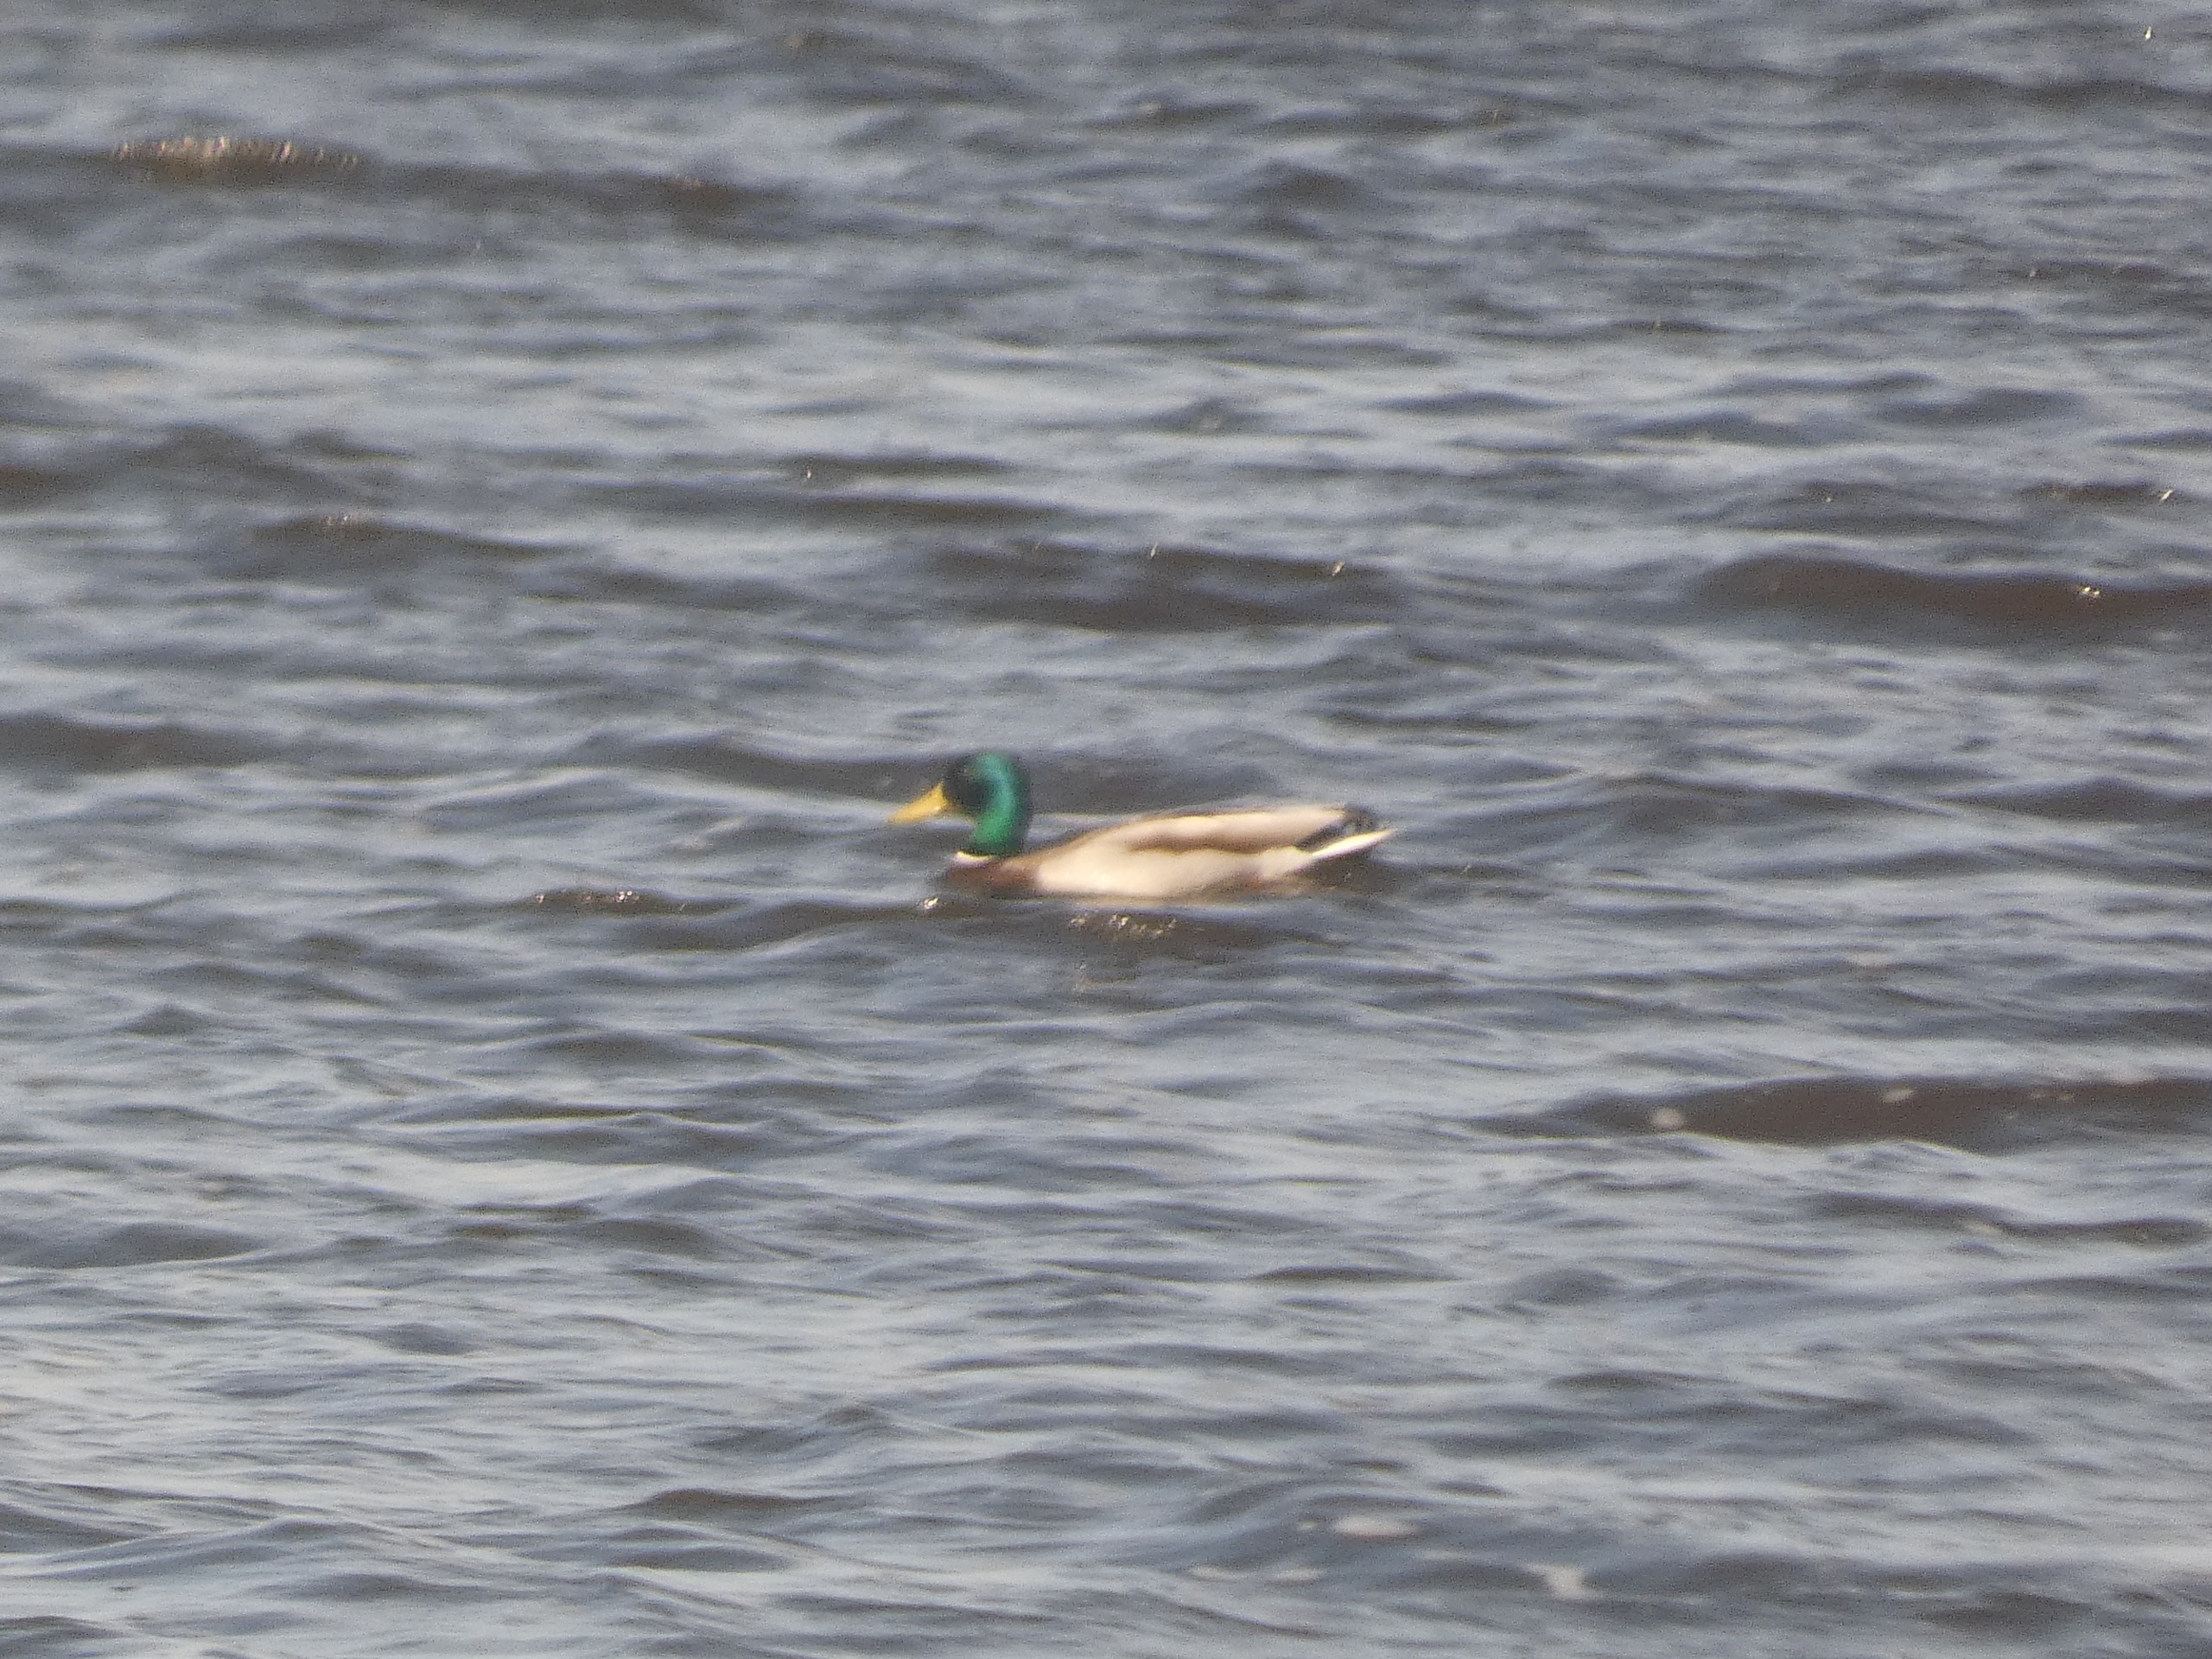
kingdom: Animalia
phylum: Chordata
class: Aves
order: Anseriformes
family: Anatidae
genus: Anas
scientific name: Anas platyrhynchos
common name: Gråand
